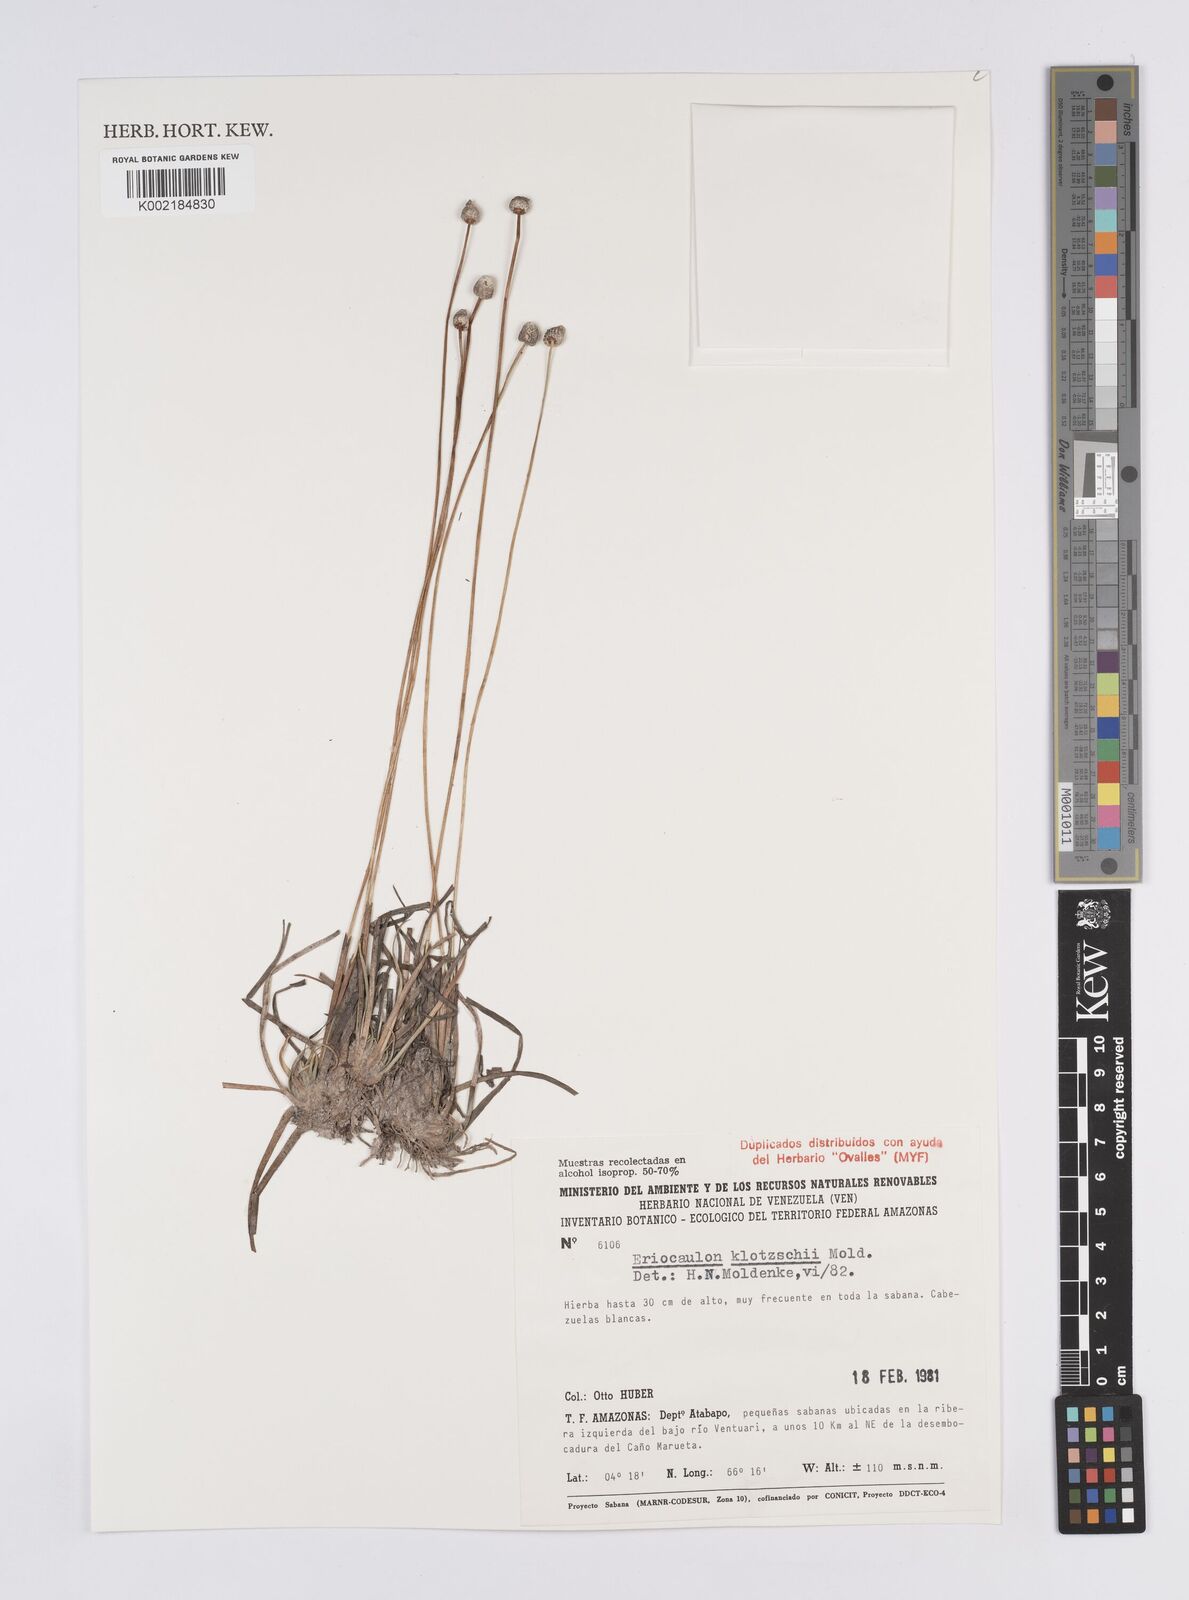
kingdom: Plantae
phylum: Tracheophyta
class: Liliopsida
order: Poales
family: Eriocaulaceae
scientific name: Eriocaulaceae
